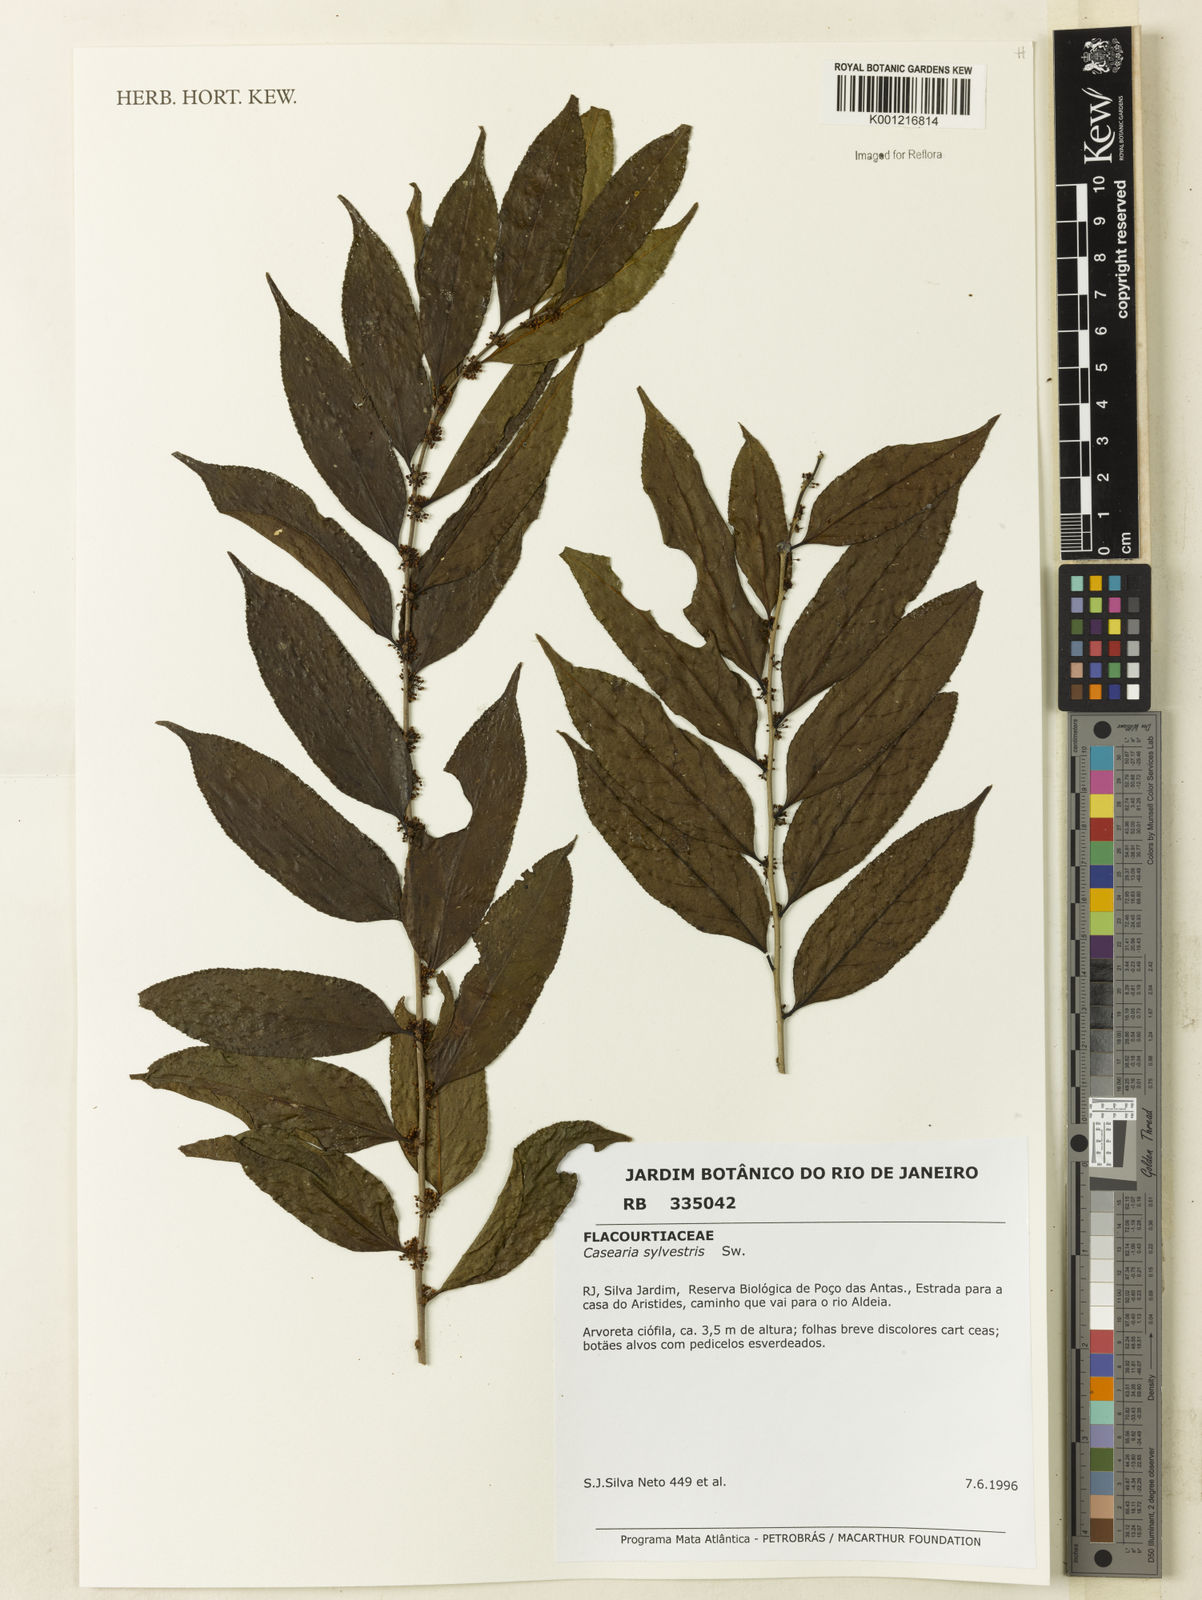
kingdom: Plantae
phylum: Tracheophyta
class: Magnoliopsida
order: Malpighiales
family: Salicaceae
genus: Casearia
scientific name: Casearia sylvestris
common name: Wild sage
